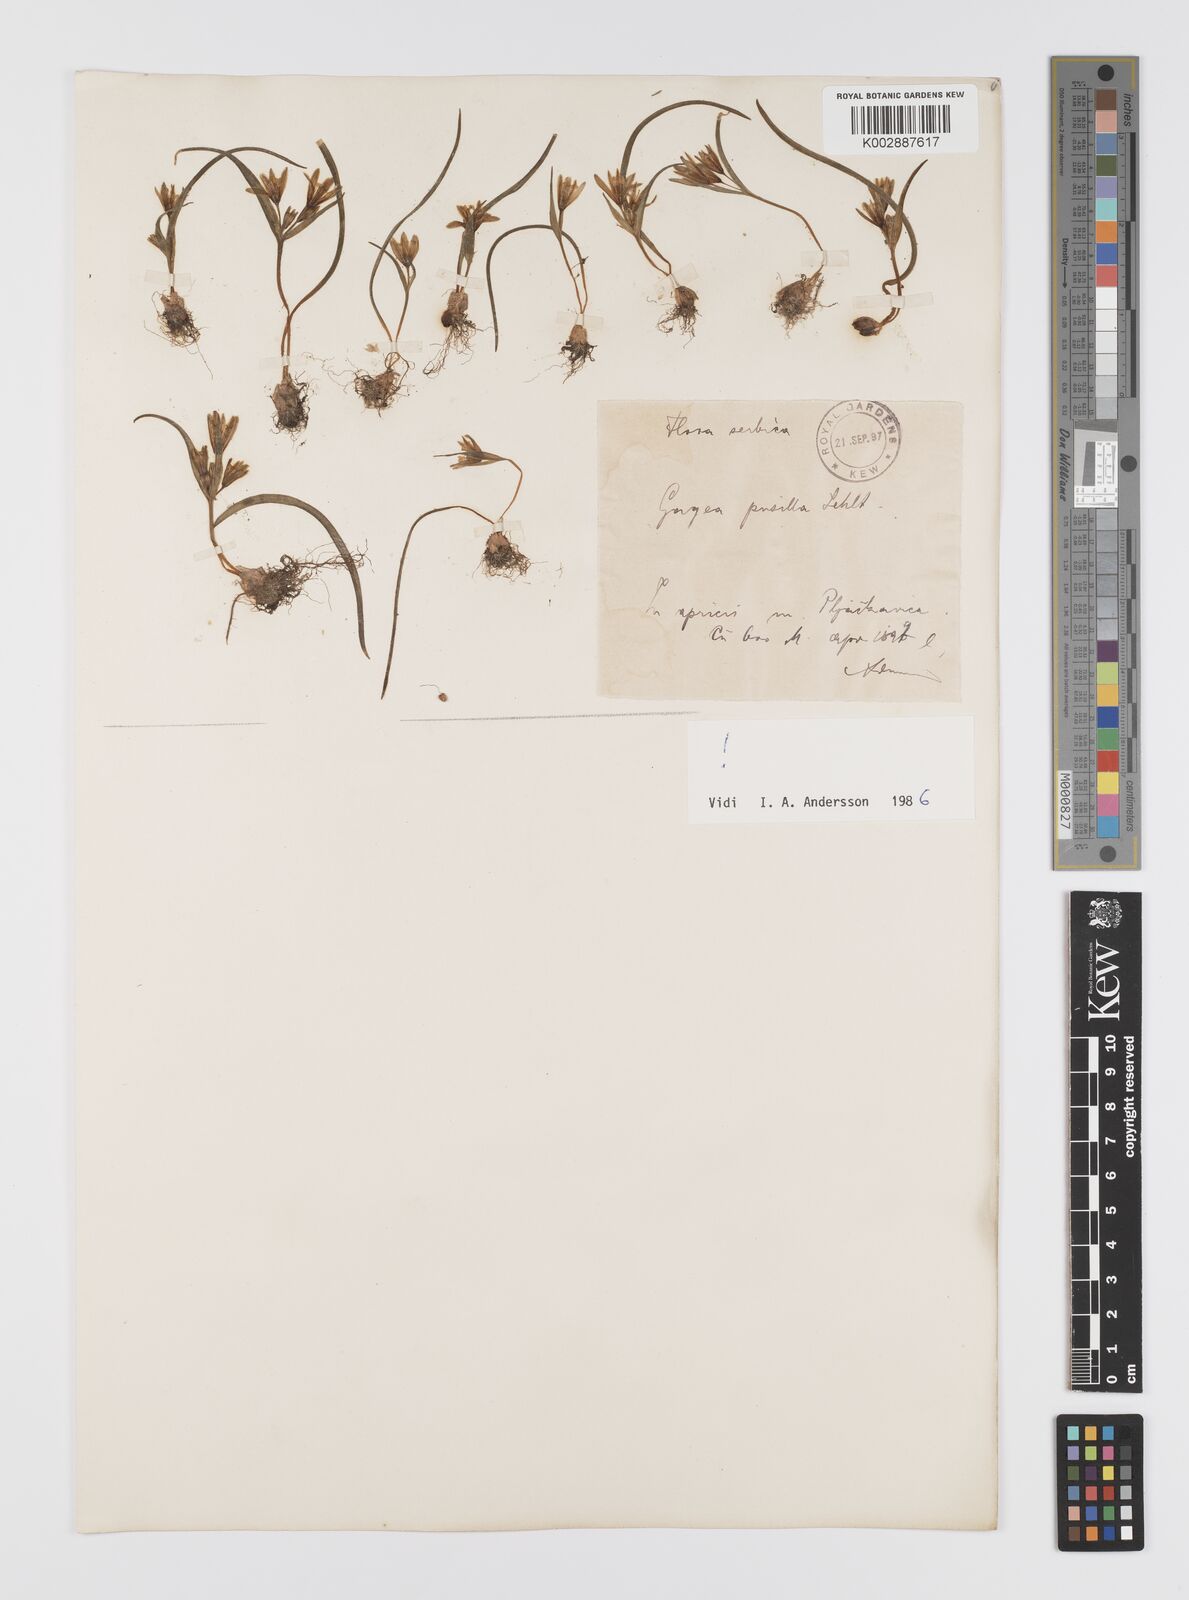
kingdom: Plantae
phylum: Tracheophyta
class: Liliopsida
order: Liliales
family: Liliaceae
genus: Gagea
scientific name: Gagea pusilla
